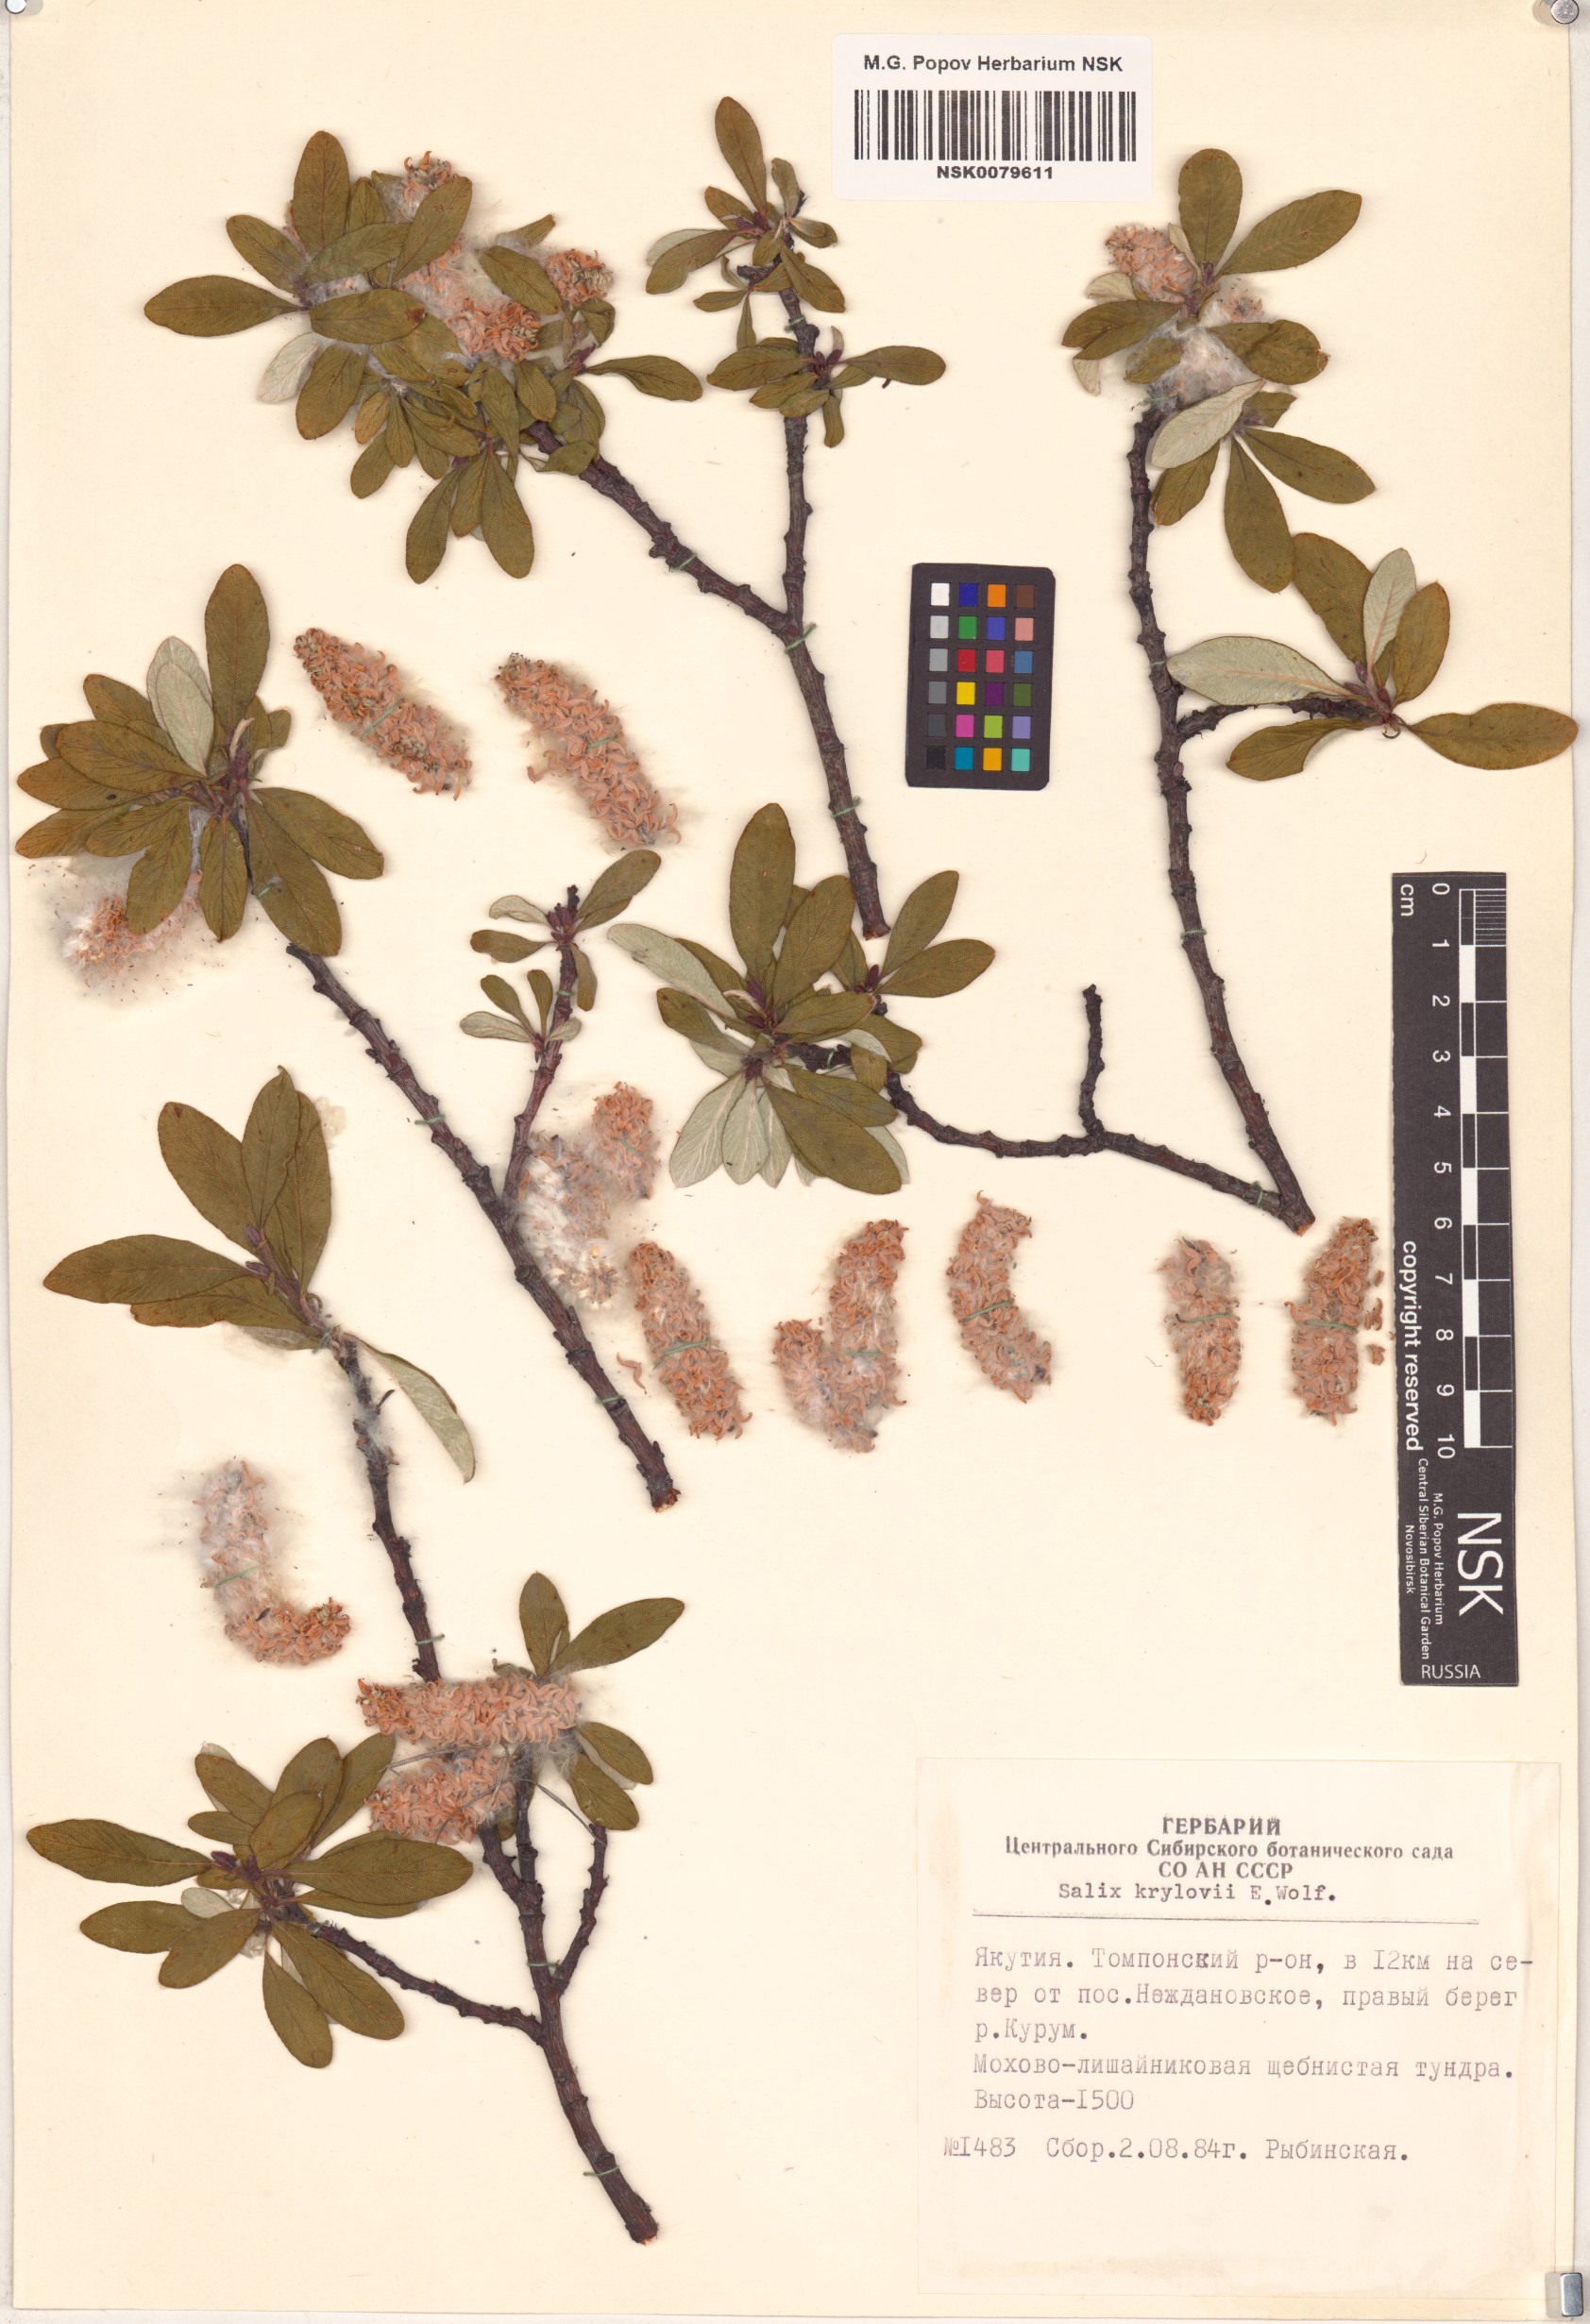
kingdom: Plantae
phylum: Tracheophyta
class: Magnoliopsida
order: Malpighiales
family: Salicaceae
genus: Salix
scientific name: Salix krylovii
